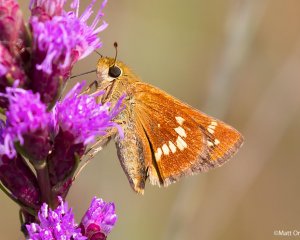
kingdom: Animalia
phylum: Arthropoda
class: Insecta
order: Lepidoptera
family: Hesperiidae
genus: Hesperia
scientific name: Hesperia leonardus
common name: Leonard's Skipper
